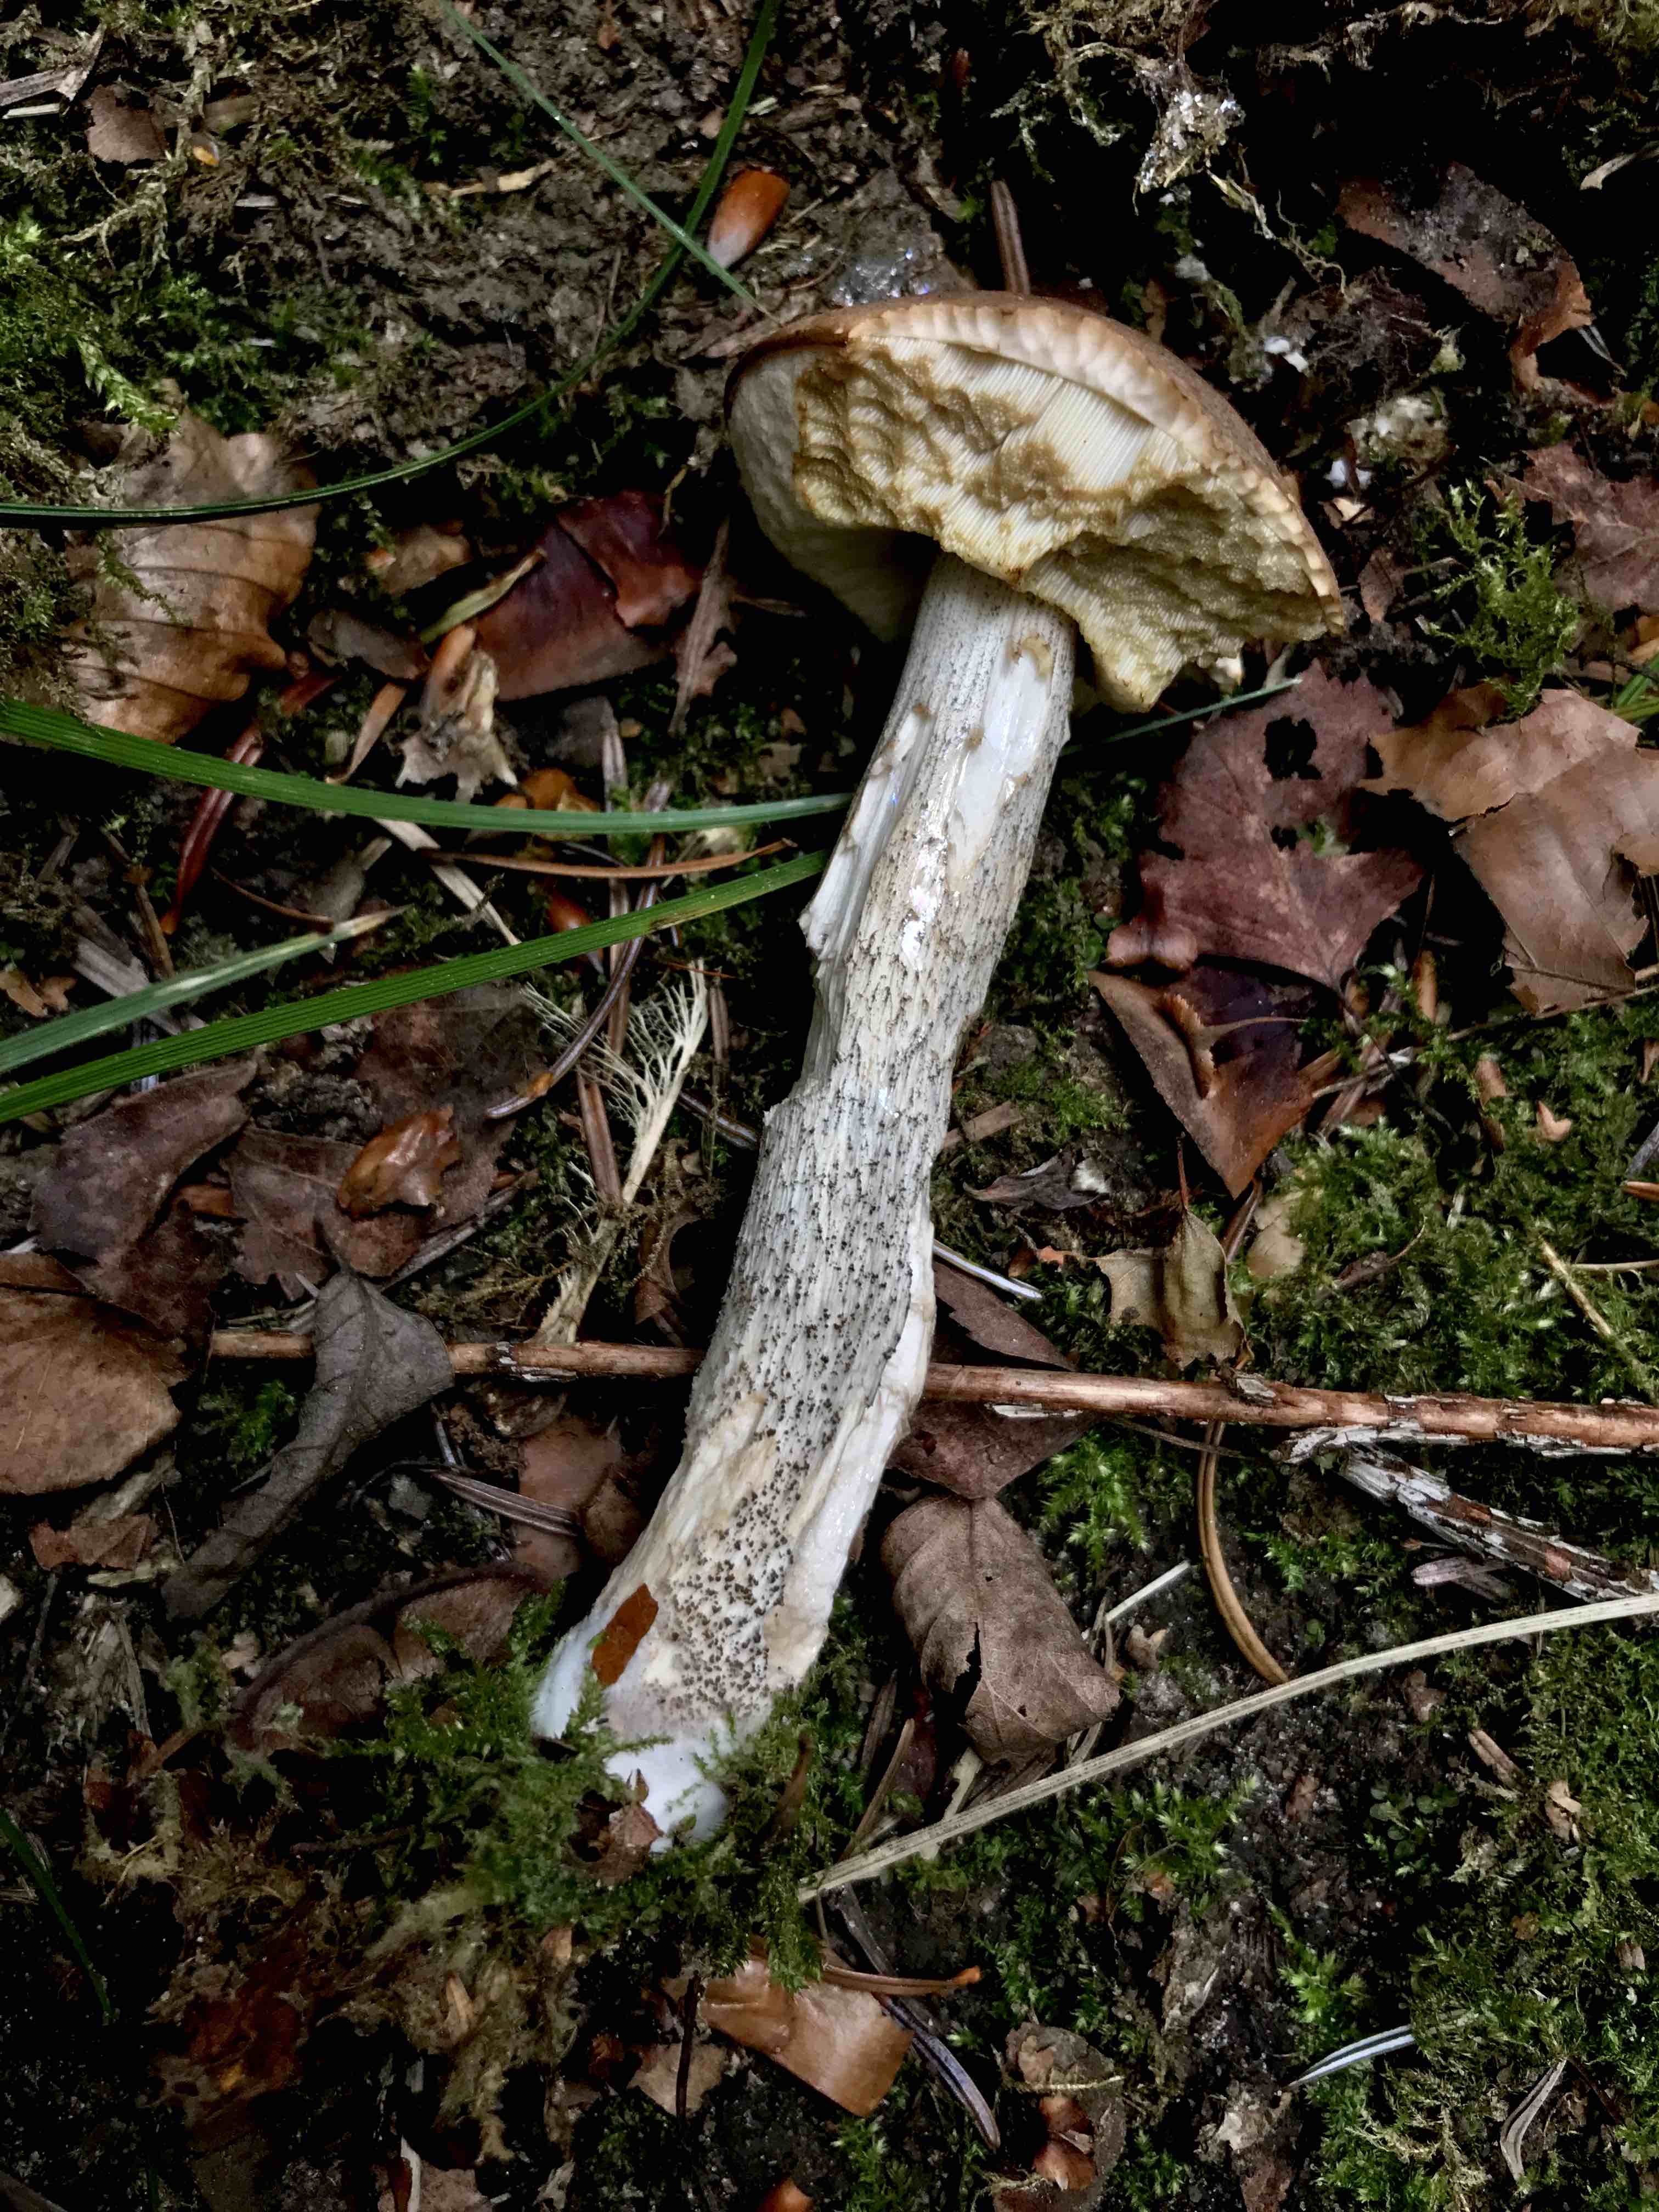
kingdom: Fungi
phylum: Basidiomycota
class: Agaricomycetes
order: Boletales
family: Boletaceae
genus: Leccinum
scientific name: Leccinum scabrum
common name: brun skælrørhat
